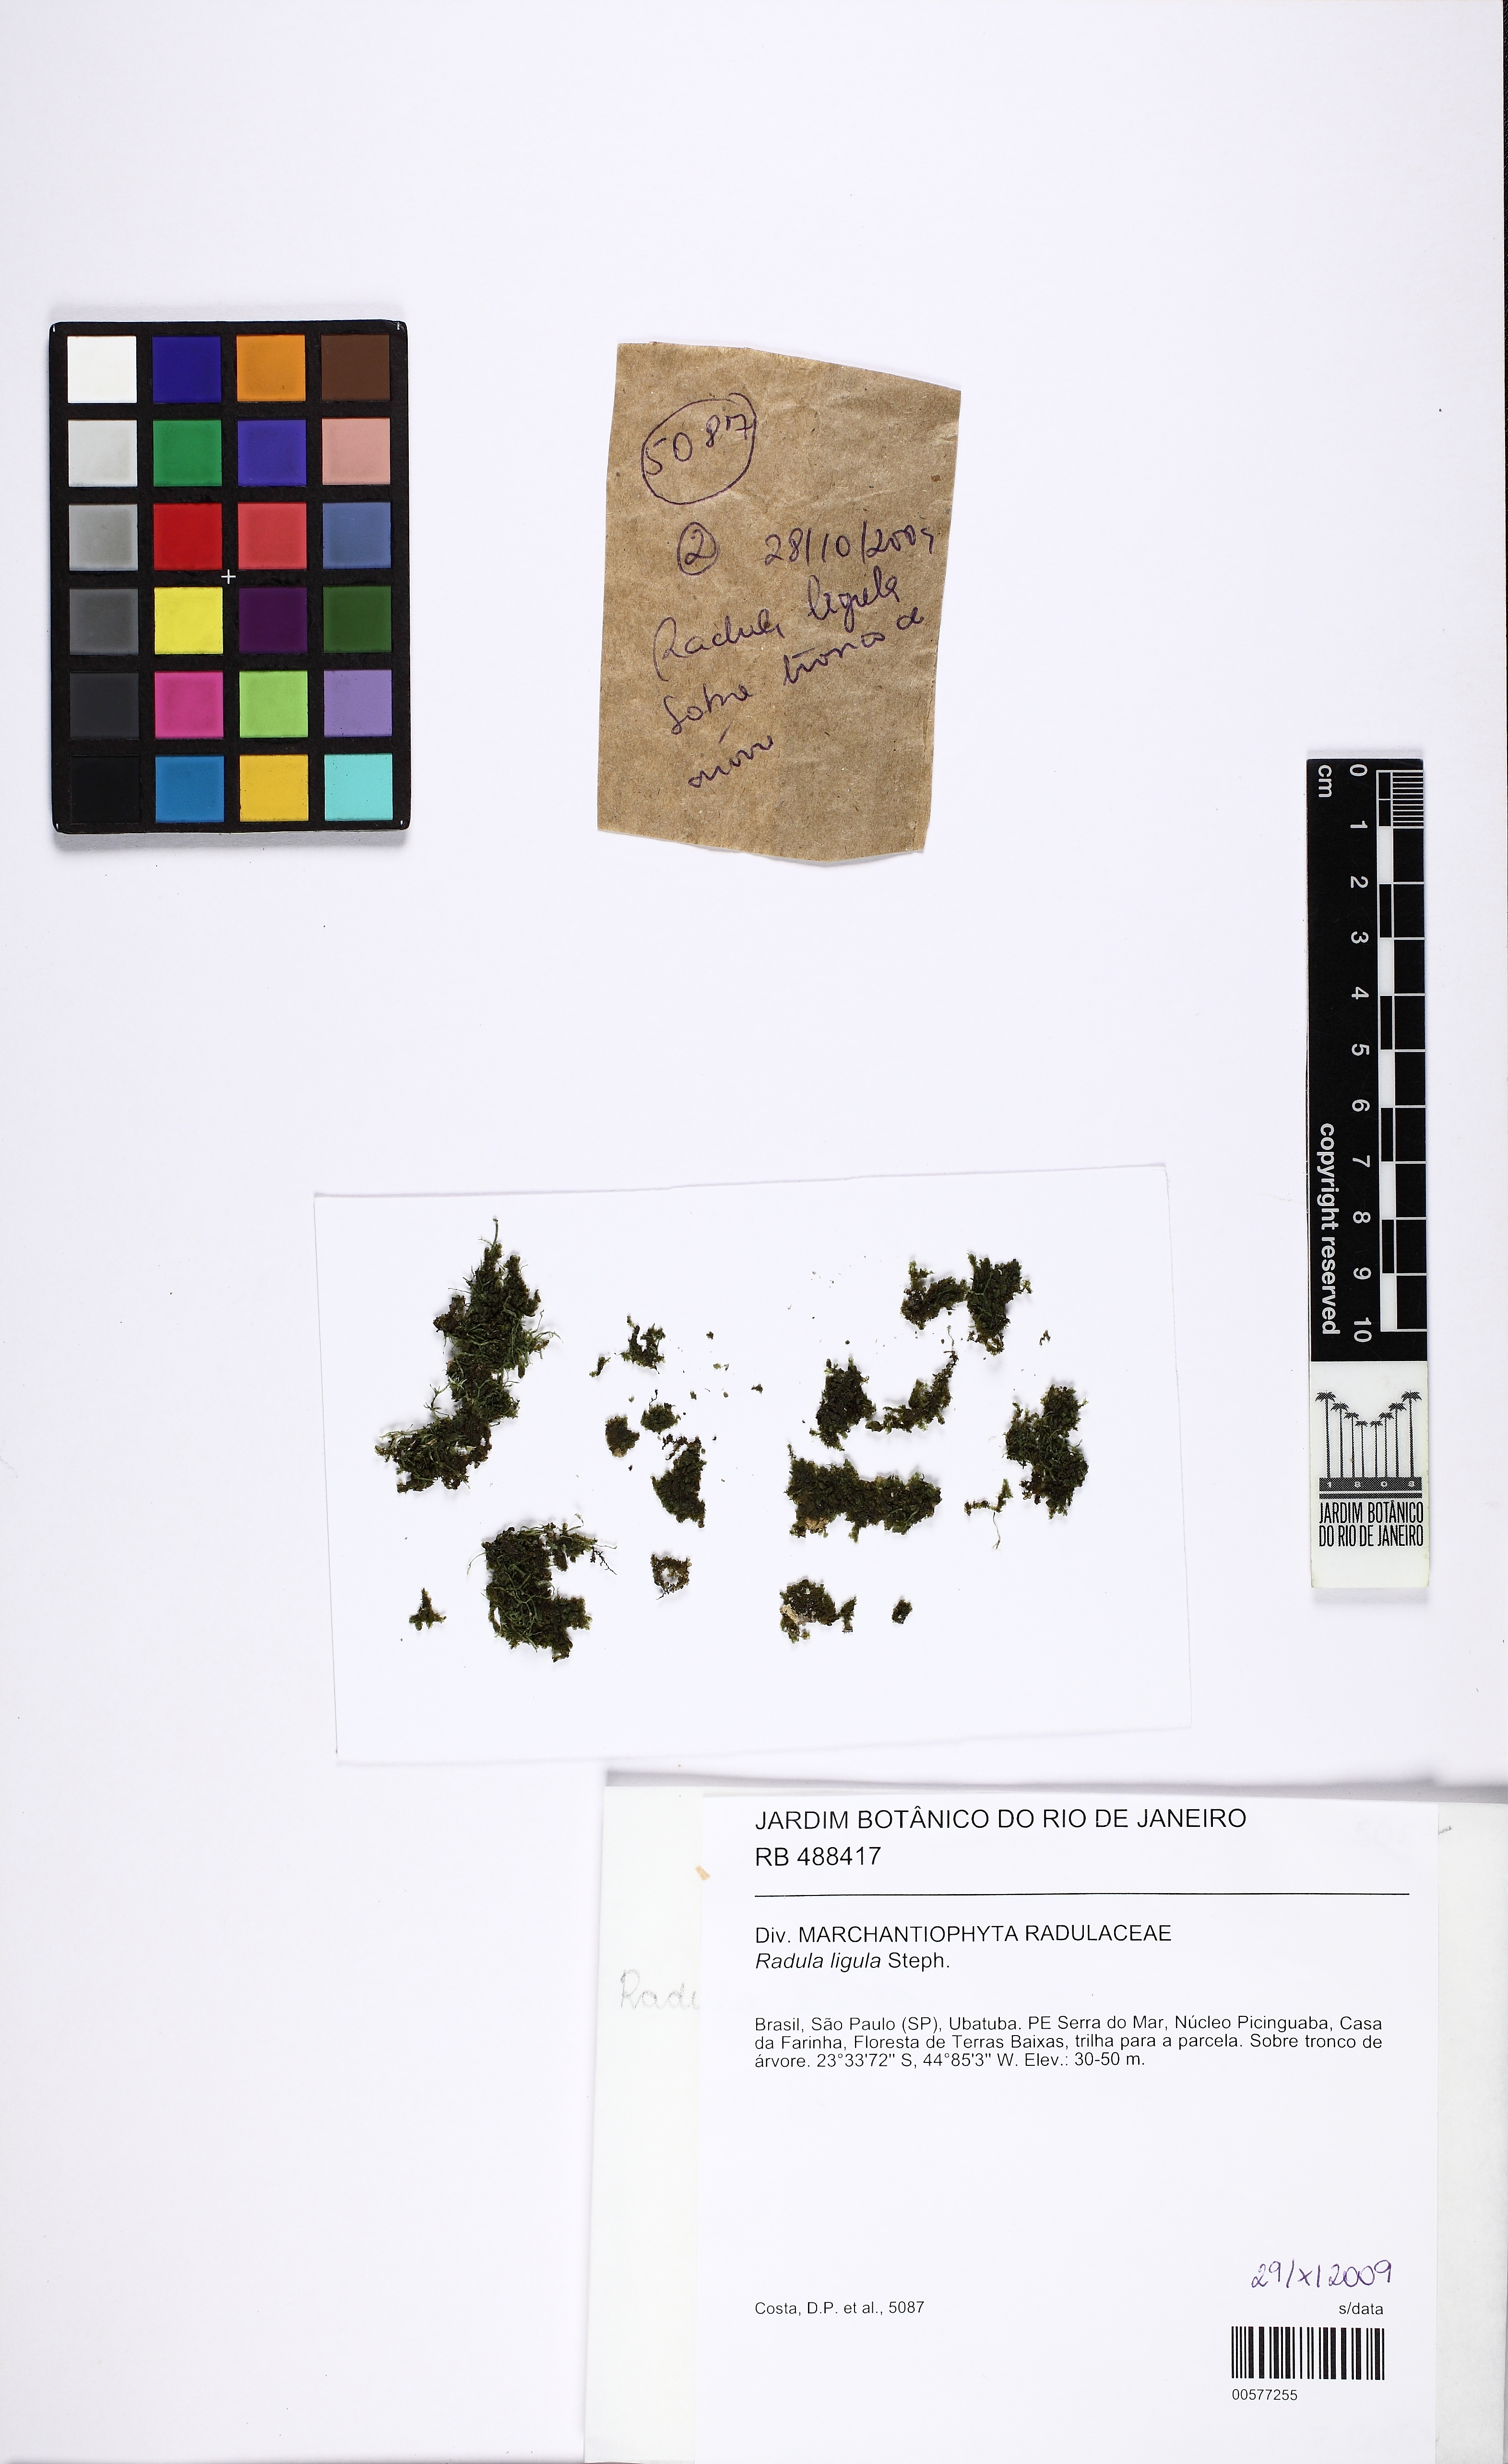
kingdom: Plantae
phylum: Marchantiophyta
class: Jungermanniopsida
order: Porellales
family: Radulaceae
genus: Radula
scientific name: Radula ligula
